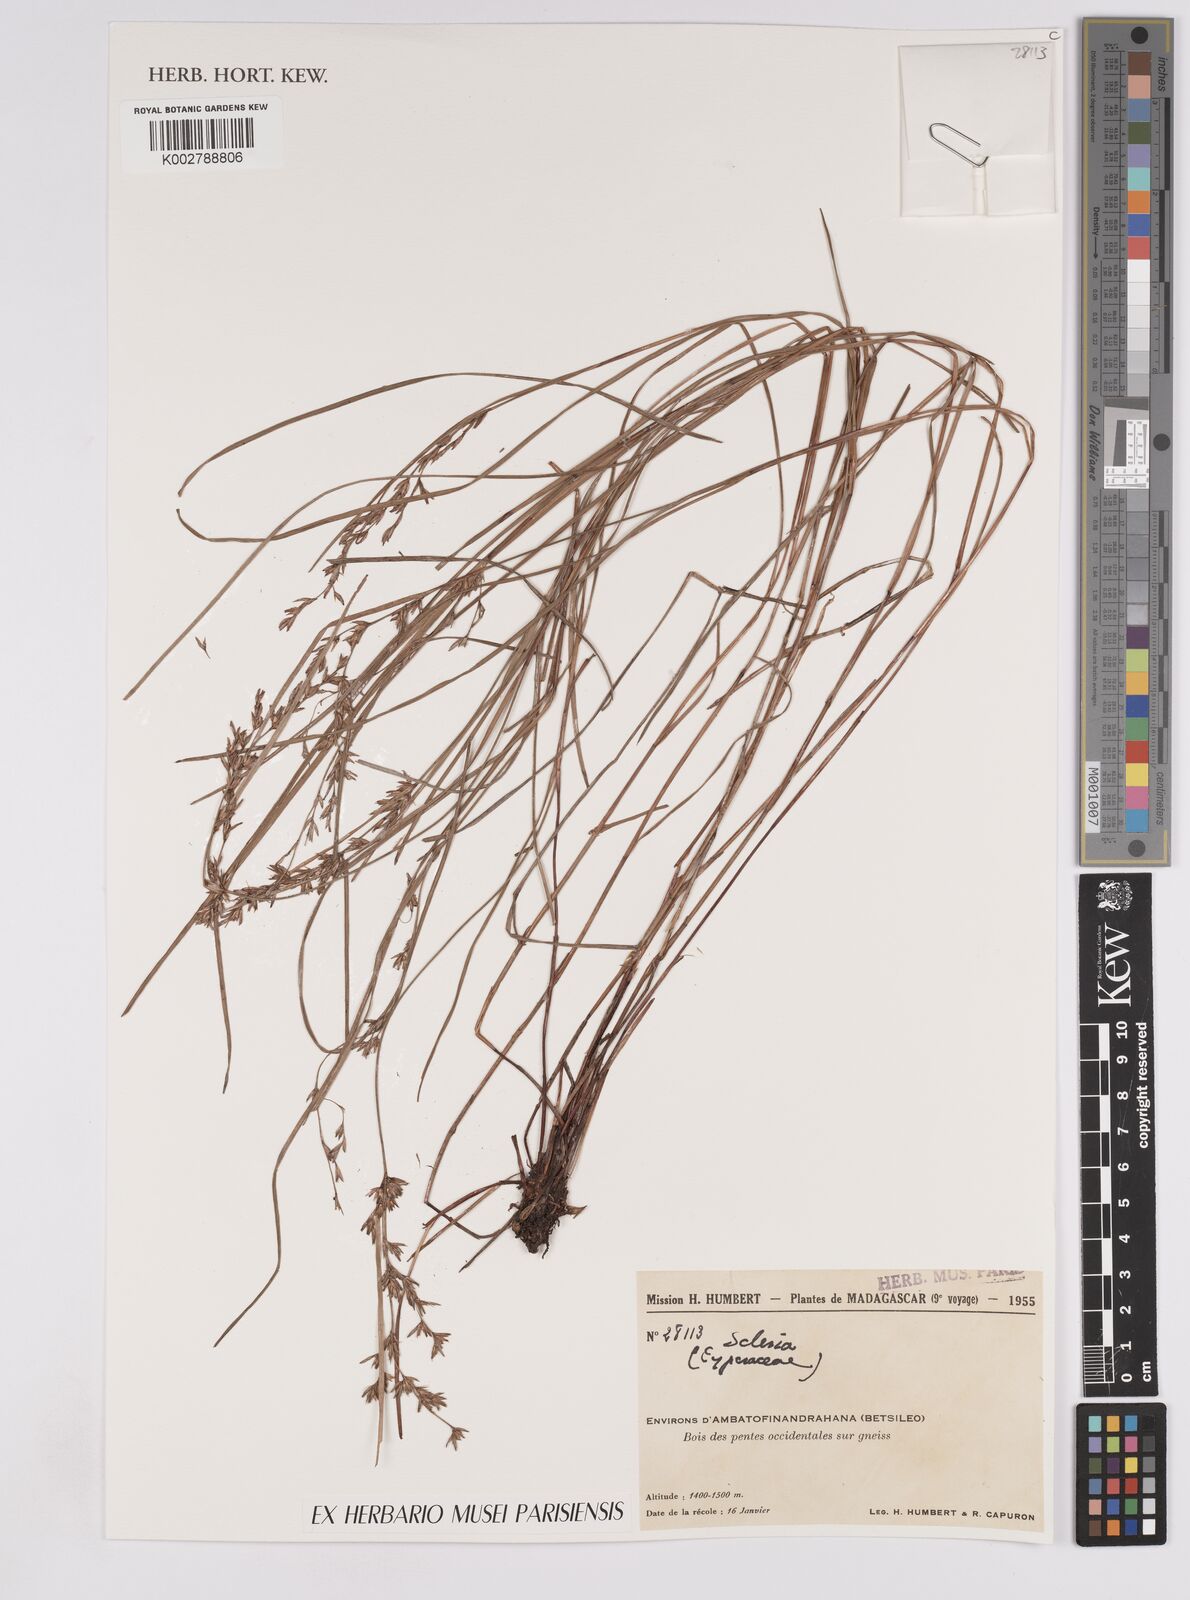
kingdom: Plantae
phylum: Tracheophyta
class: Liliopsida
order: Poales
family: Cyperaceae
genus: Scleria
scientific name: Scleria
